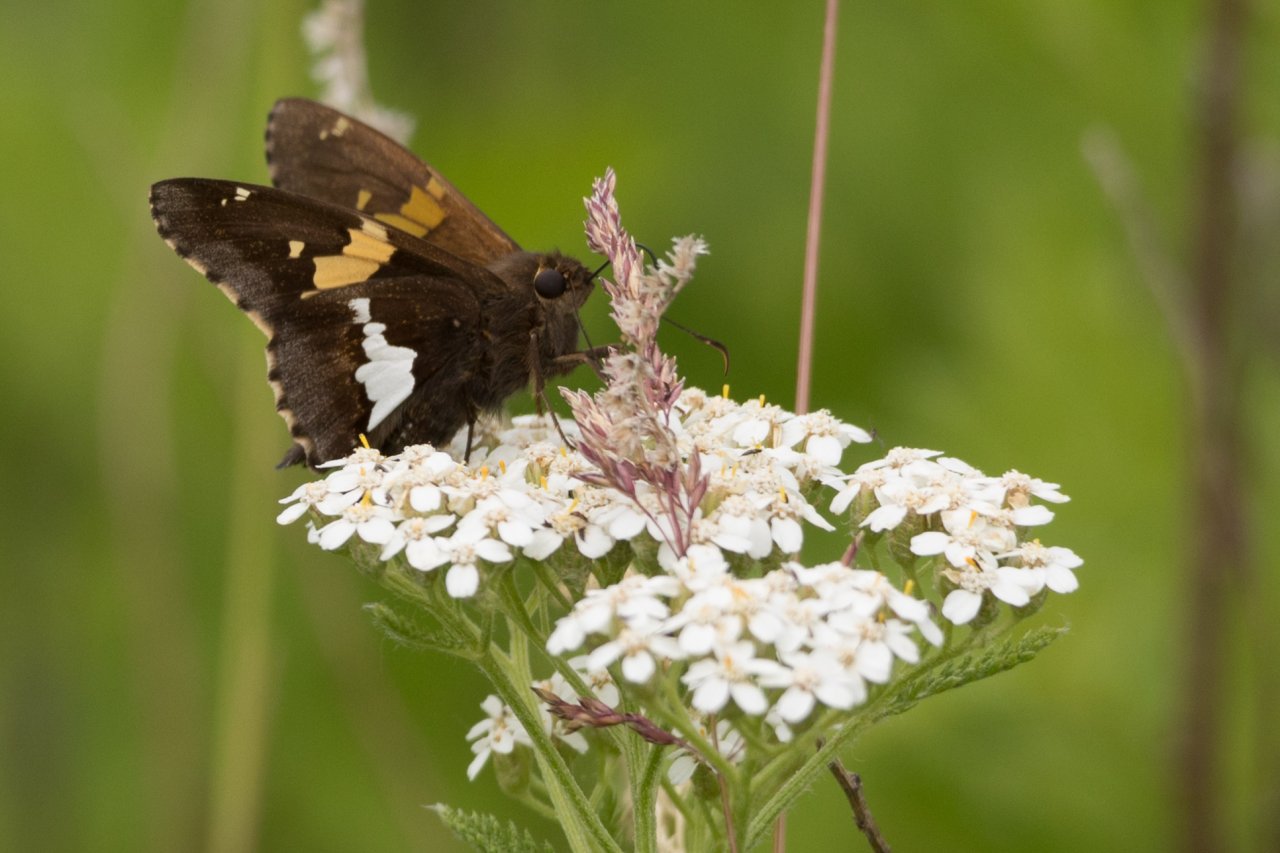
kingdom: Animalia
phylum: Arthropoda
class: Insecta
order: Lepidoptera
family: Hesperiidae
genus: Epargyreus
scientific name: Epargyreus clarus
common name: Silver-spotted Skipper
